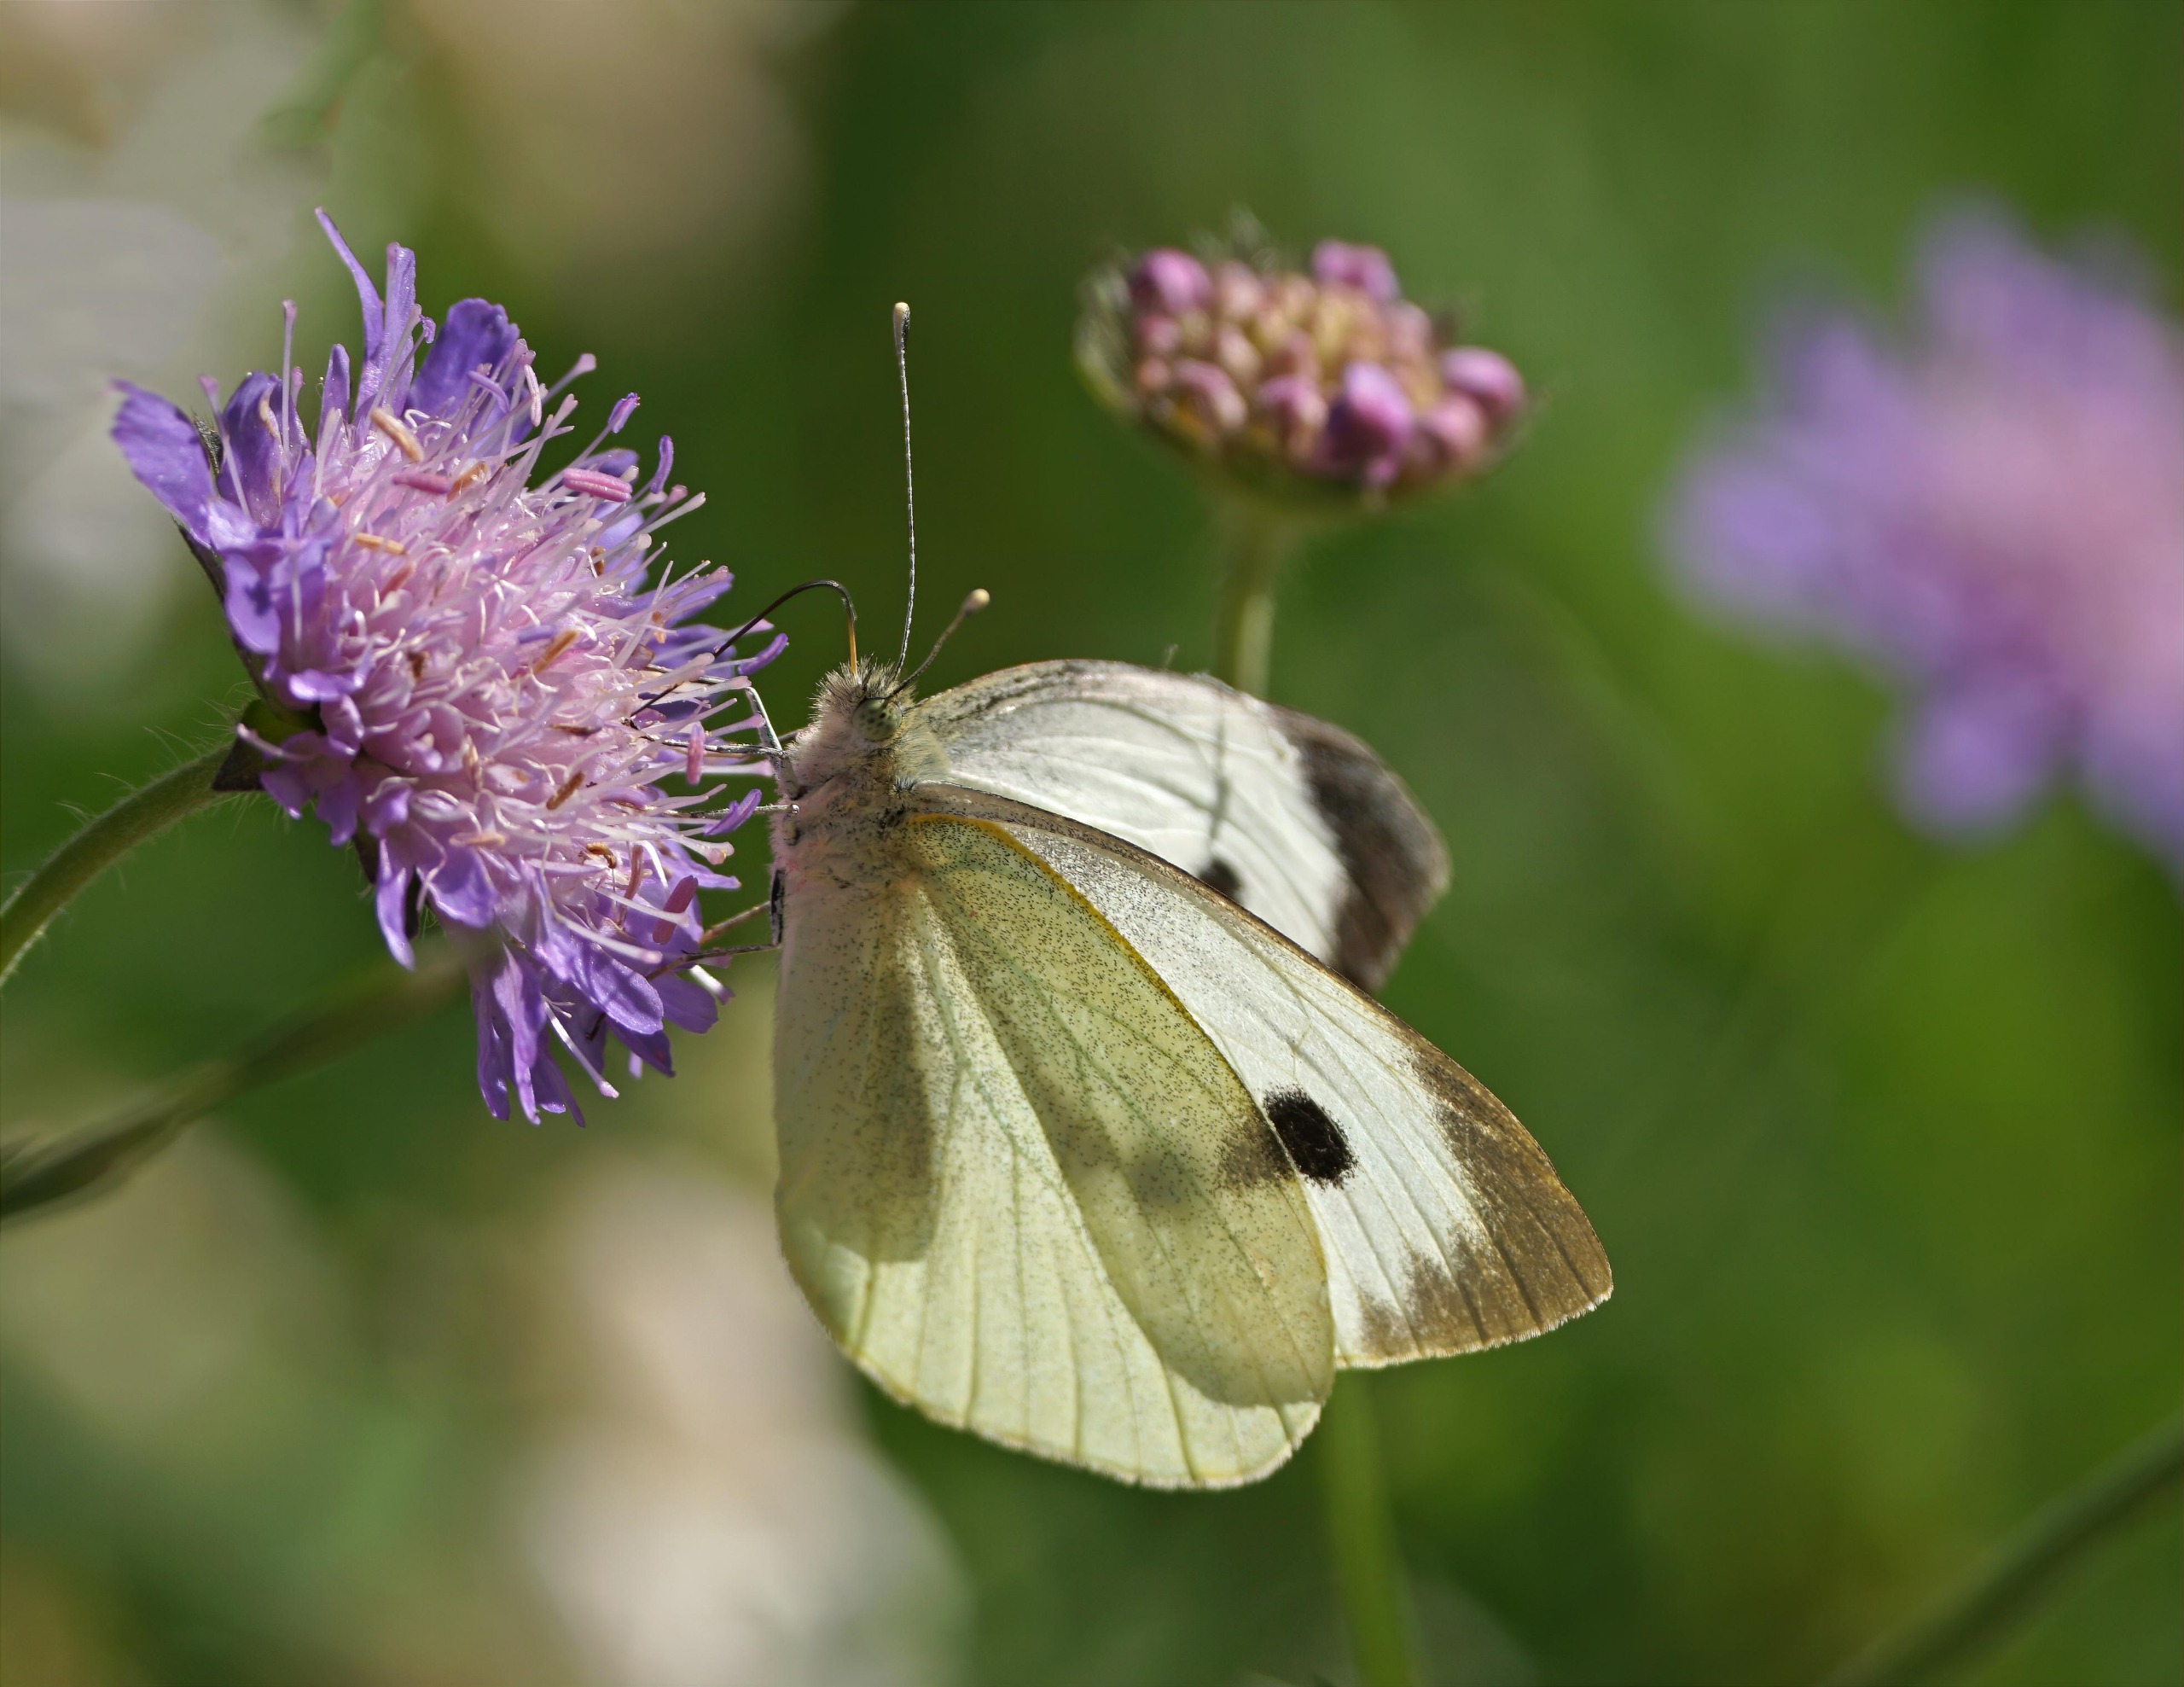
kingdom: Animalia
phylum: Arthropoda
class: Insecta
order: Lepidoptera
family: Pieridae
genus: Pieris
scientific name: Pieris brassicae
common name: Stor kålsommerfugl
